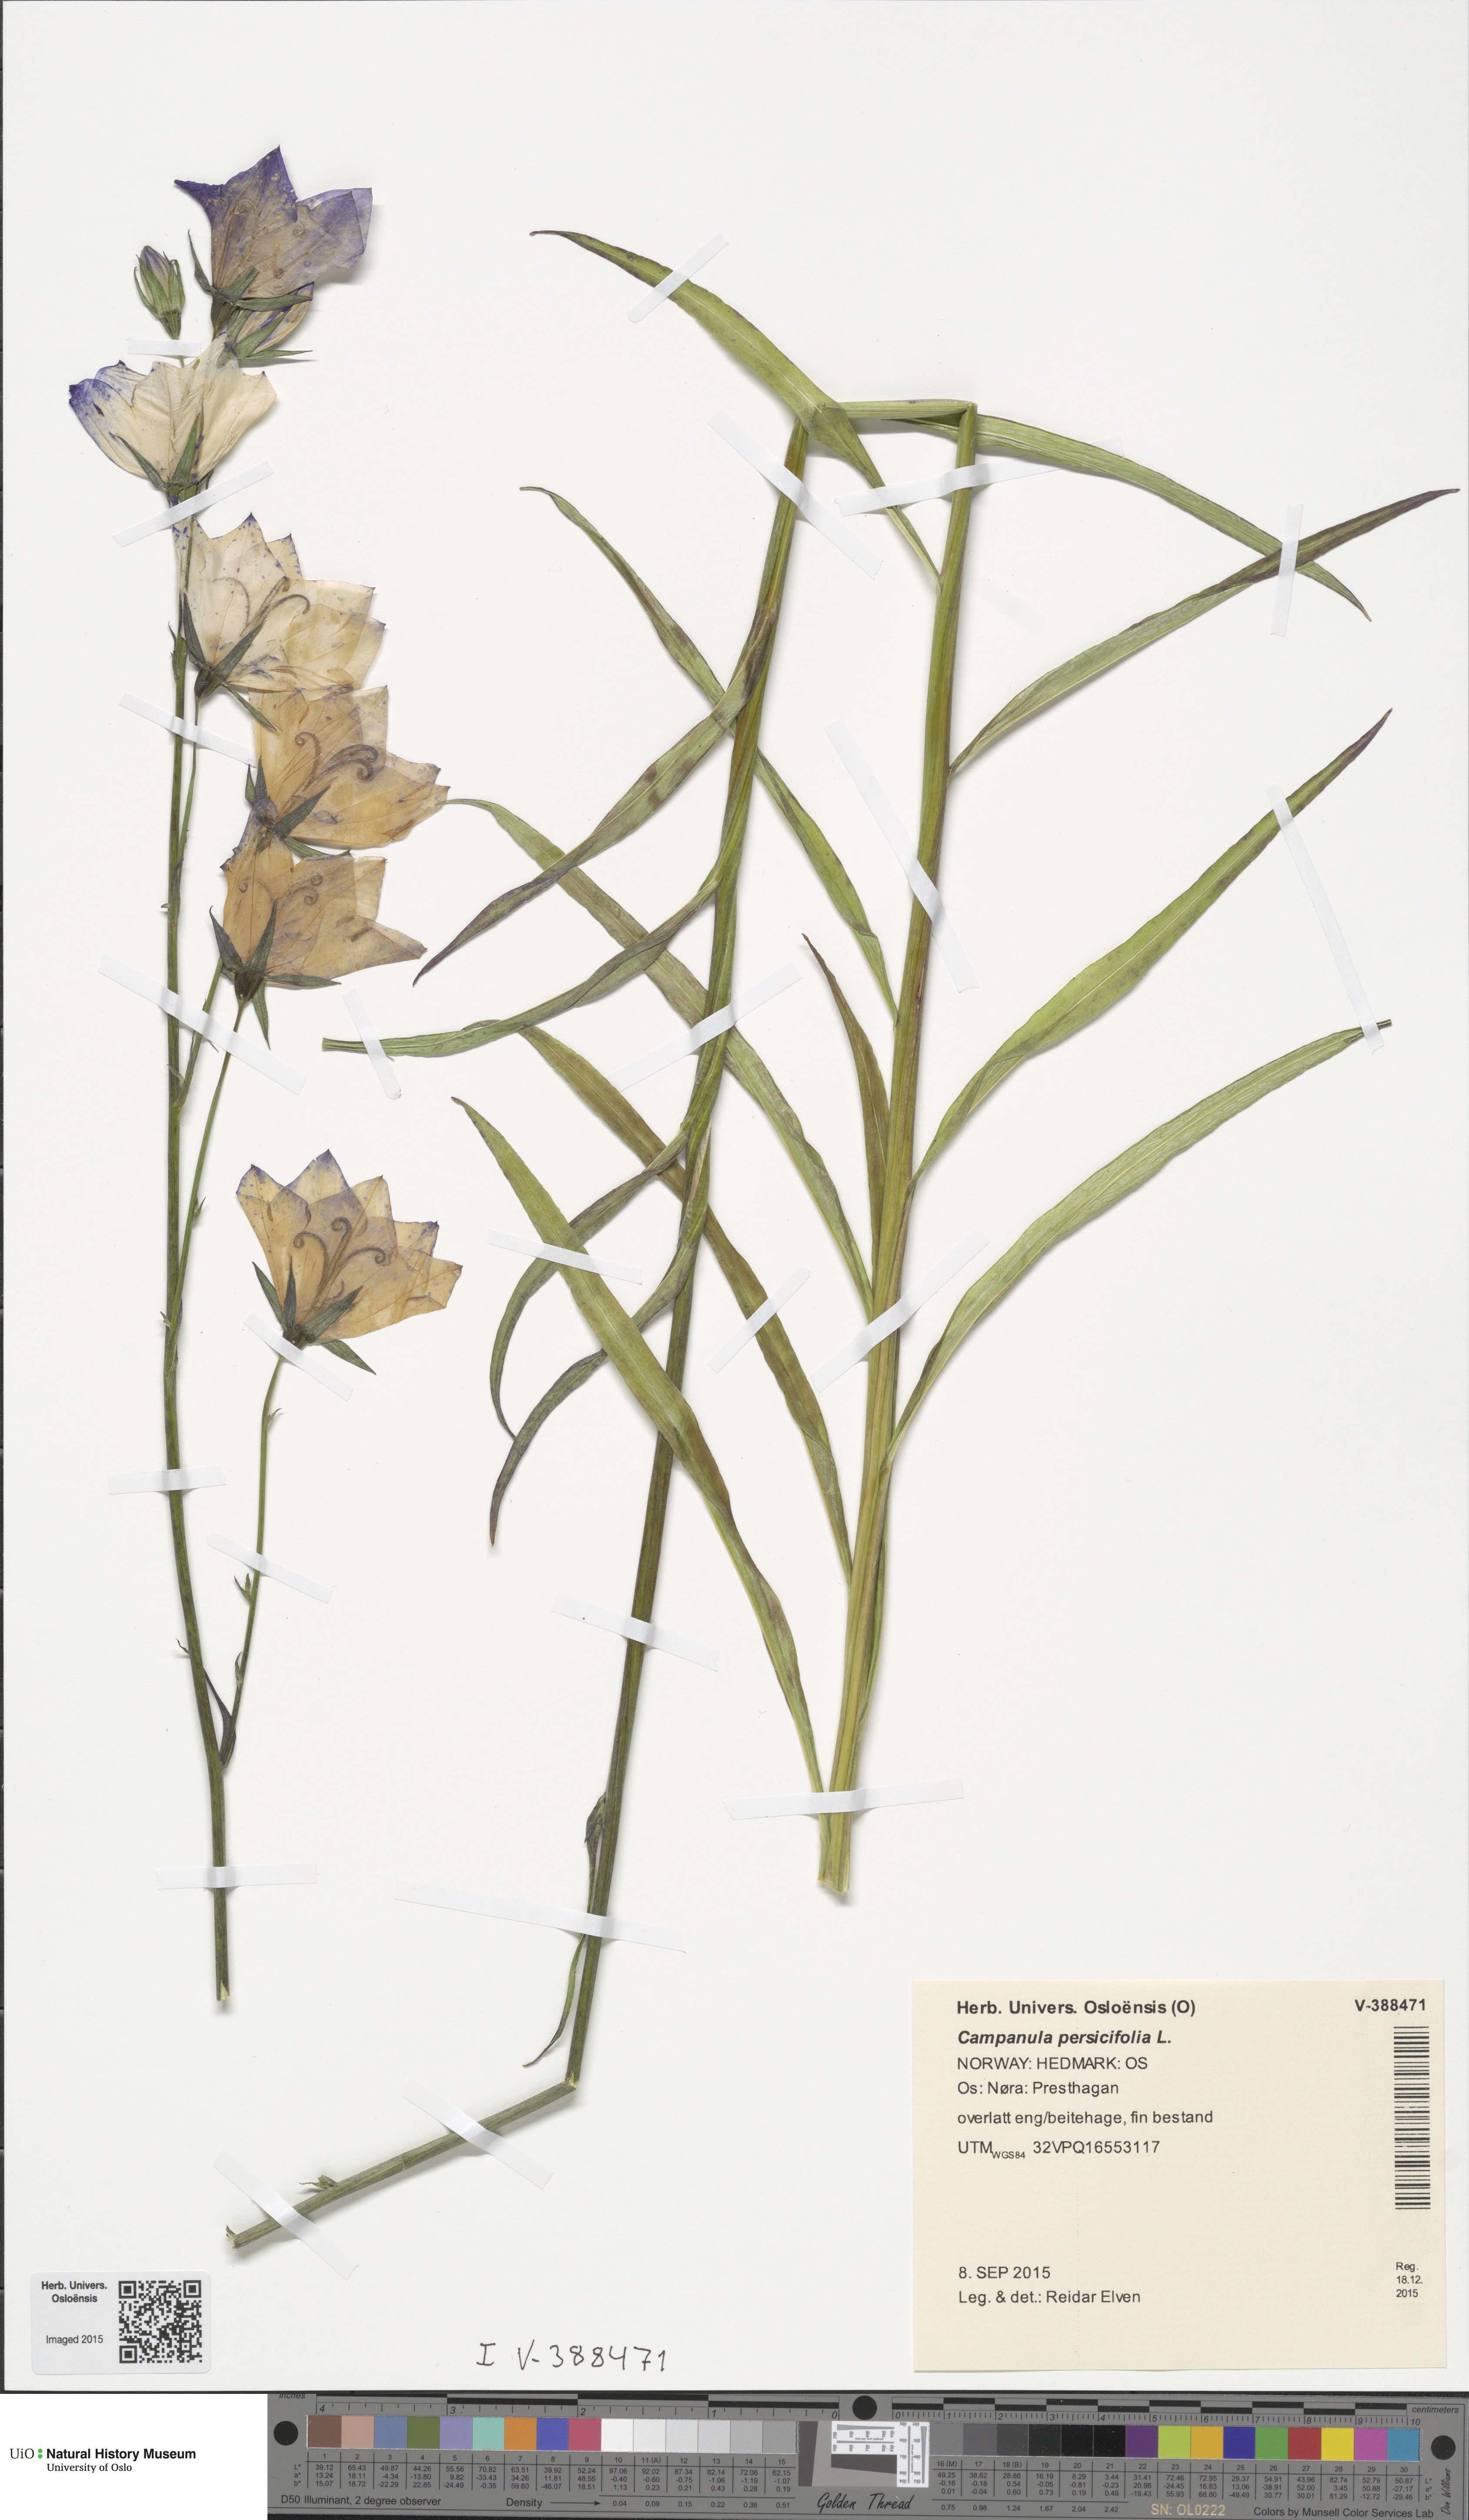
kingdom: Plantae
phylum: Tracheophyta
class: Magnoliopsida
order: Asterales
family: Campanulaceae
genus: Campanula
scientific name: Campanula persicifolia
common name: Peach-leaved bellflower
